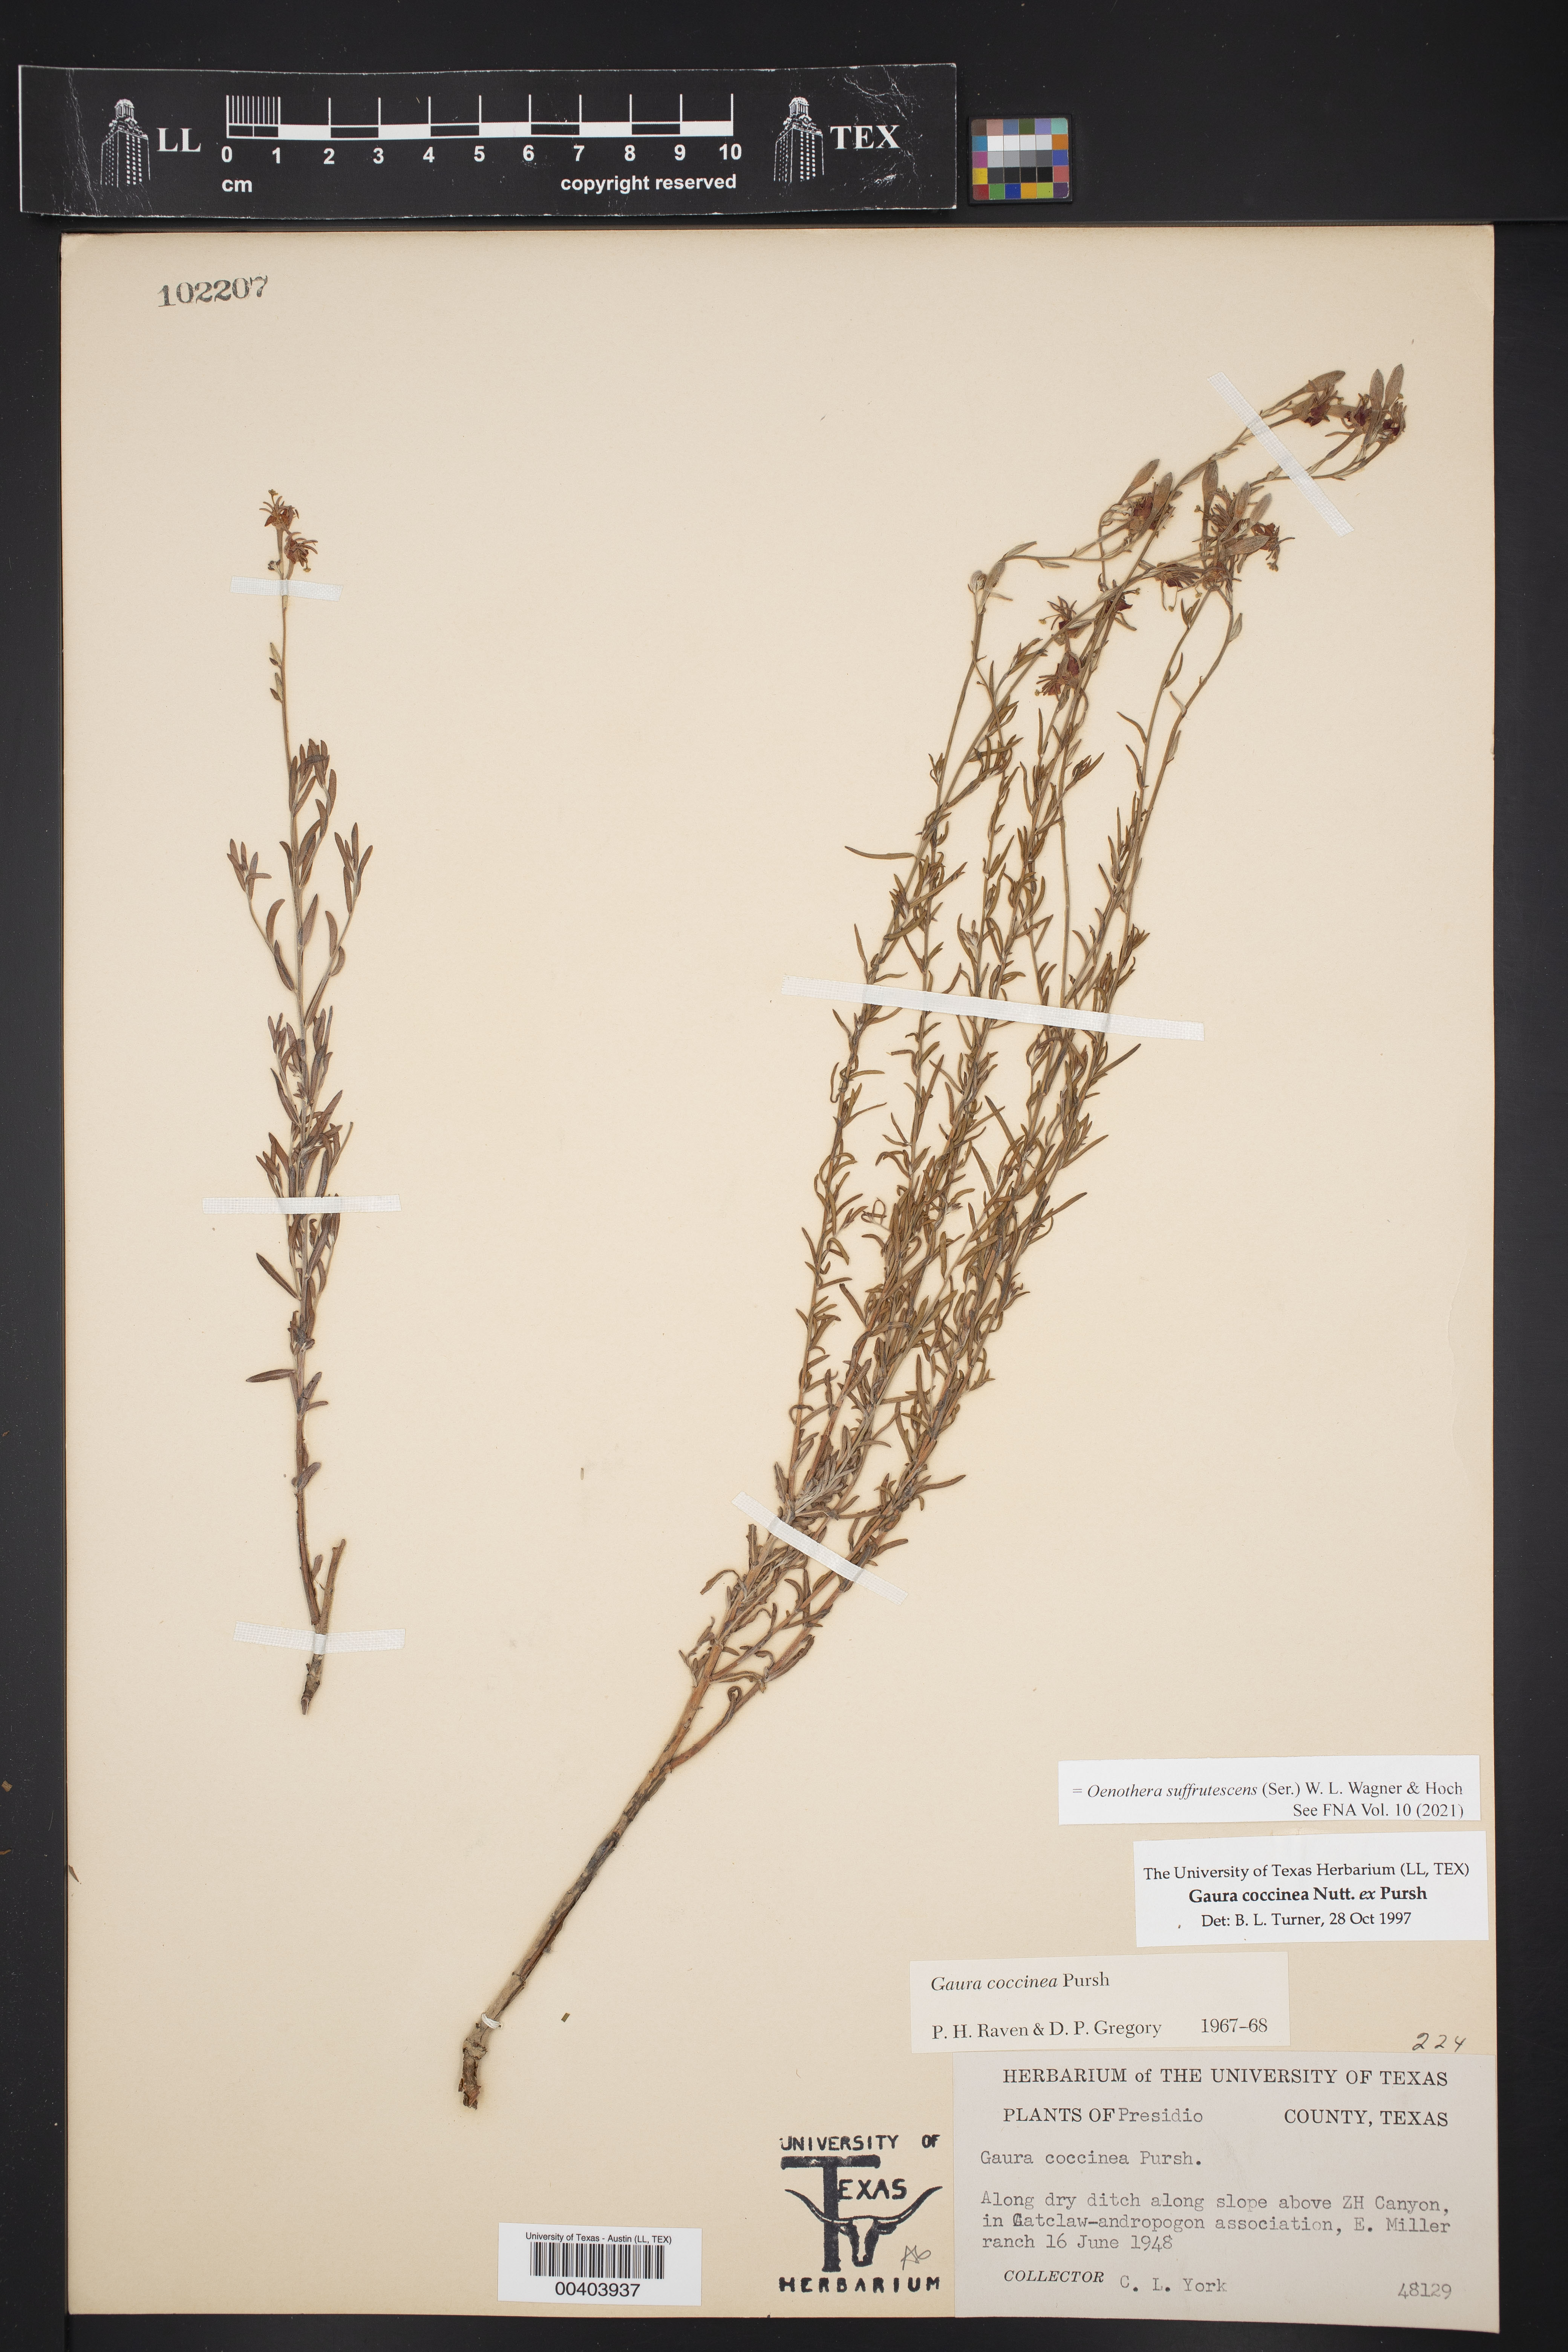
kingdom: Plantae
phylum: Tracheophyta
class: Magnoliopsida
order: Myrtales
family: Onagraceae
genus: Oenothera
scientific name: Oenothera suffrutescens
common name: Scarlet beeblossom
